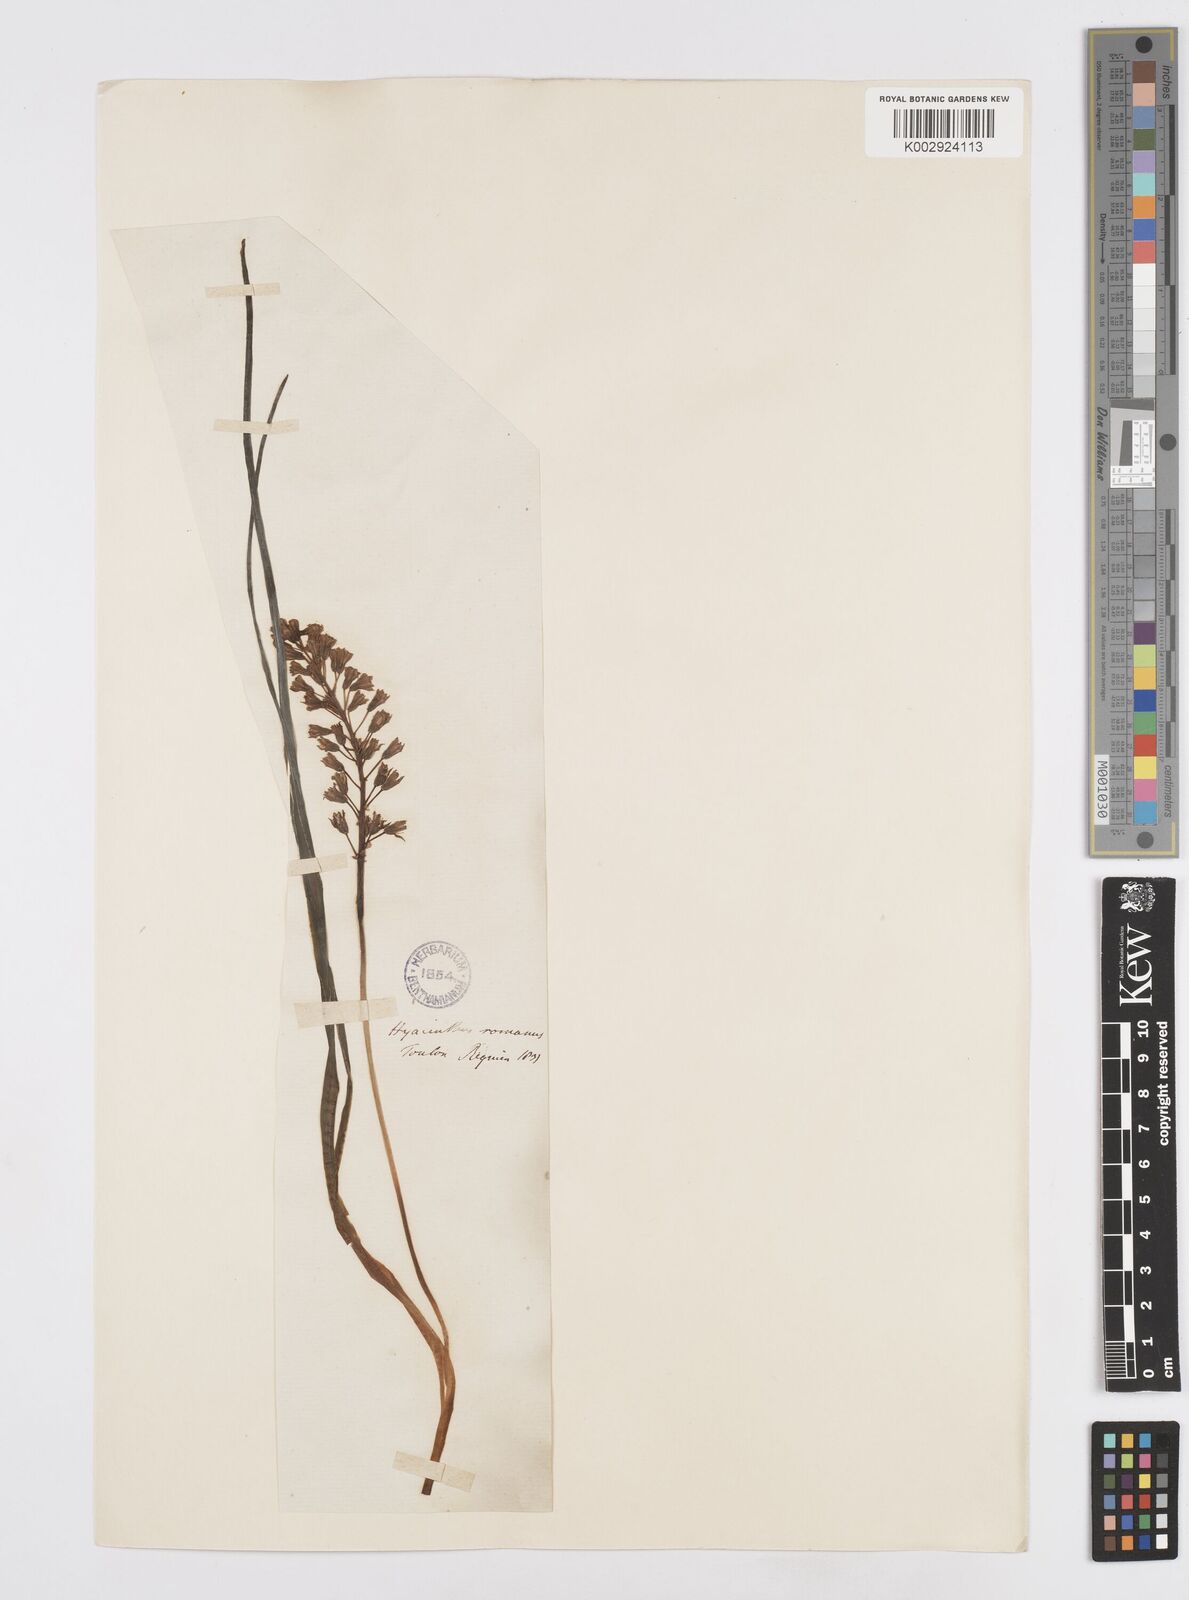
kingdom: Plantae
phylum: Tracheophyta
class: Liliopsida
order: Asparagales
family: Asparagaceae
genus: Bellevalia
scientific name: Bellevalia
